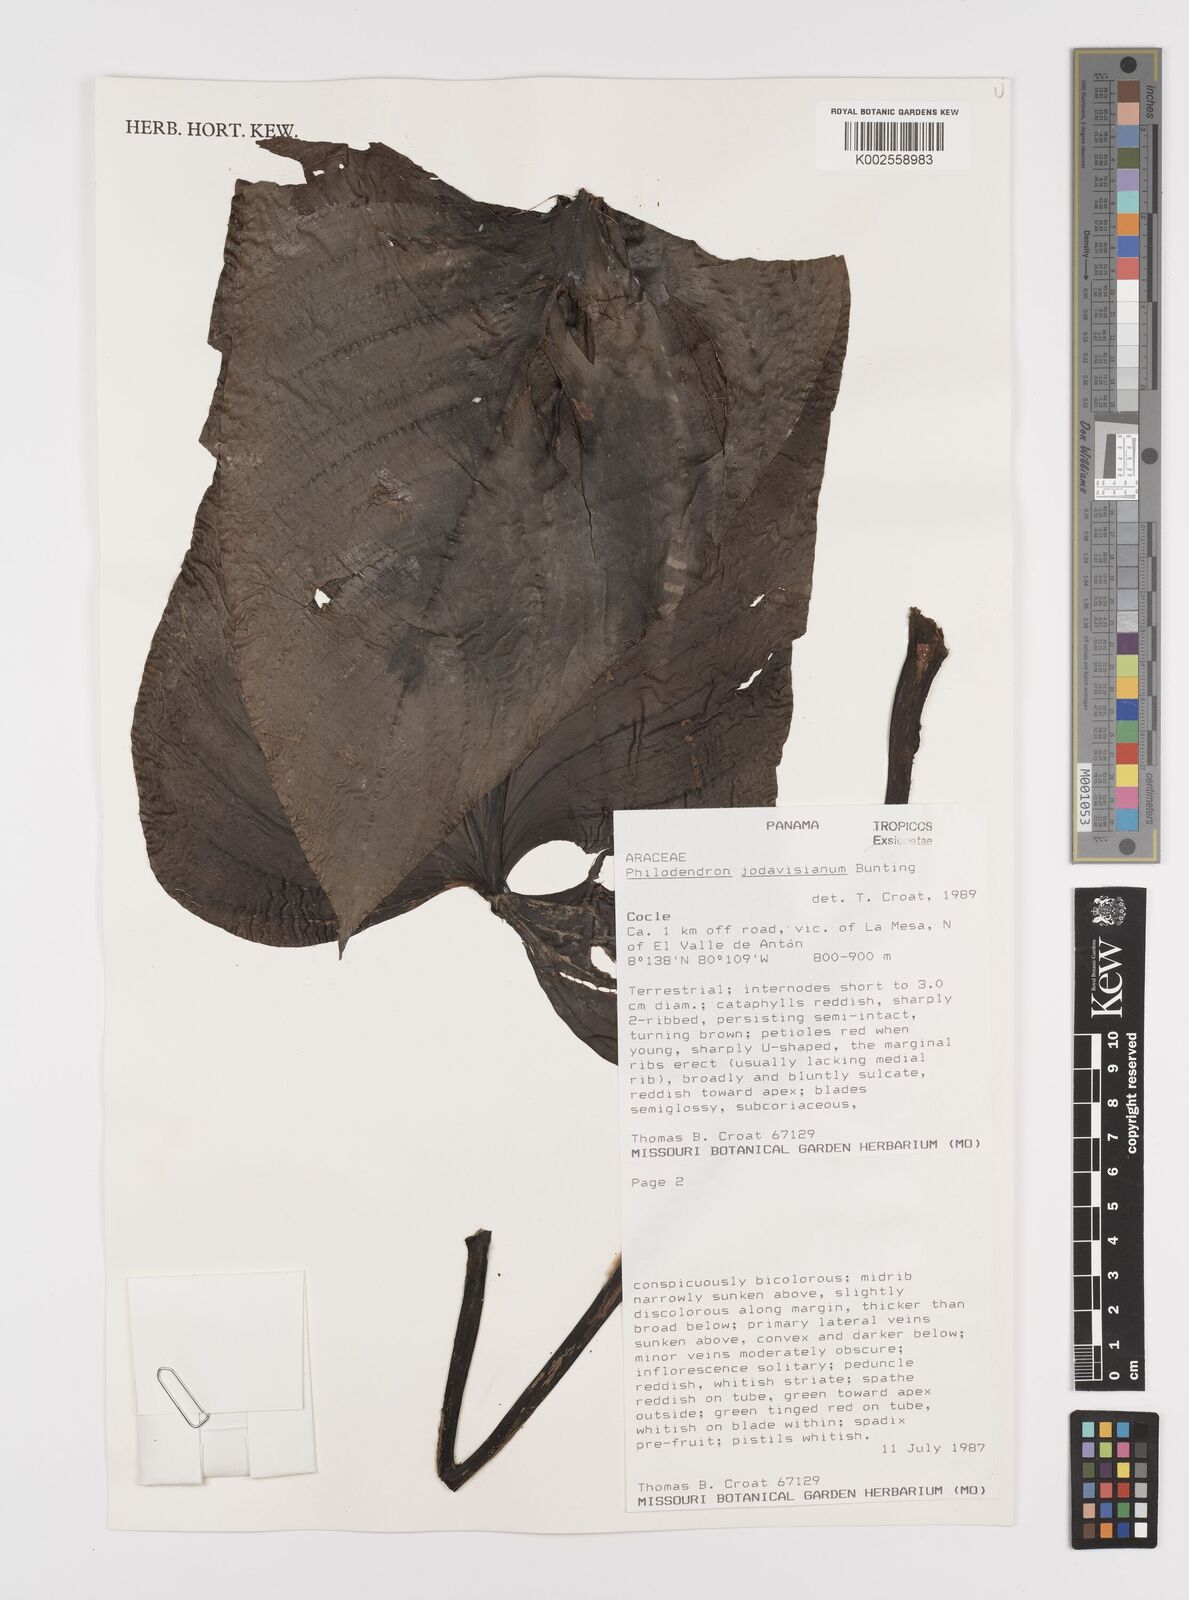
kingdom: Plantae
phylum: Tracheophyta
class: Liliopsida
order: Alismatales
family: Araceae
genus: Philodendron
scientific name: Philodendron jodavisianum
